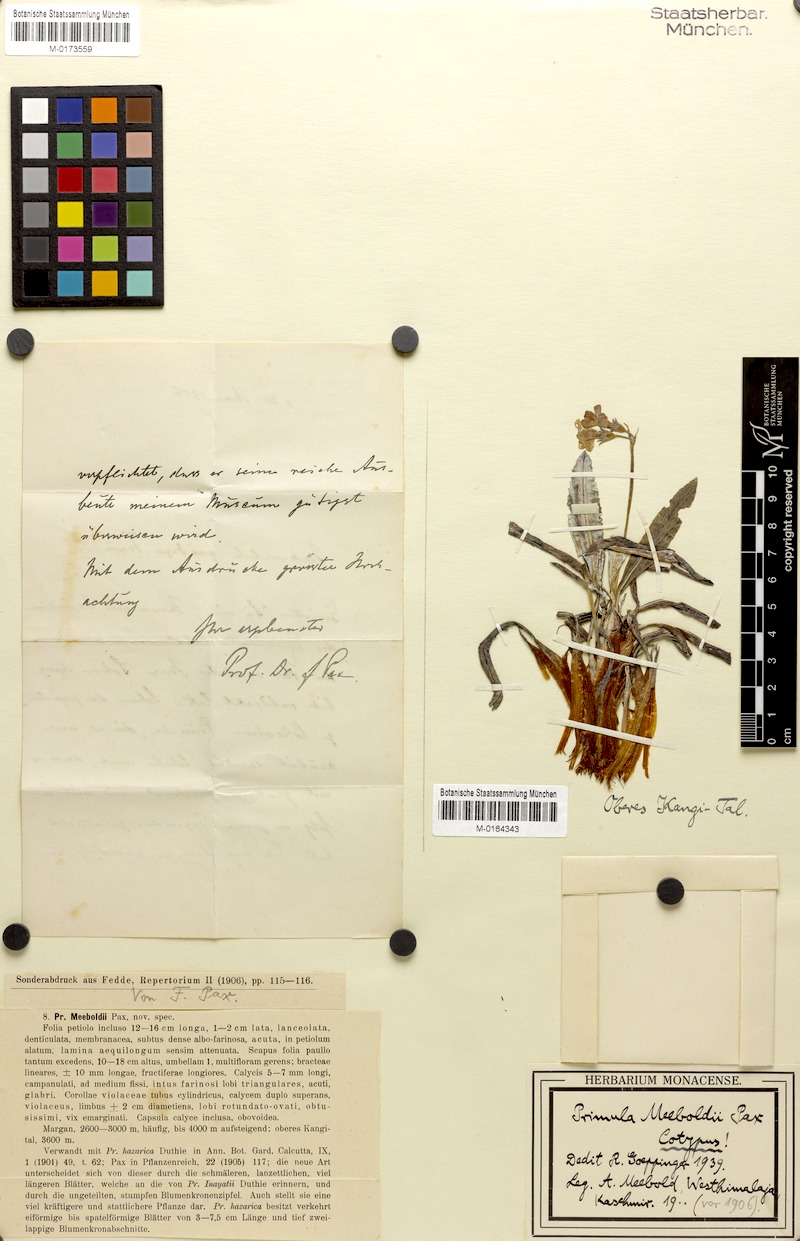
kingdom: Plantae
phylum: Tracheophyta
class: Magnoliopsida
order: Ericales
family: Primulaceae
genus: Primula
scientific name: Primula stuartii
